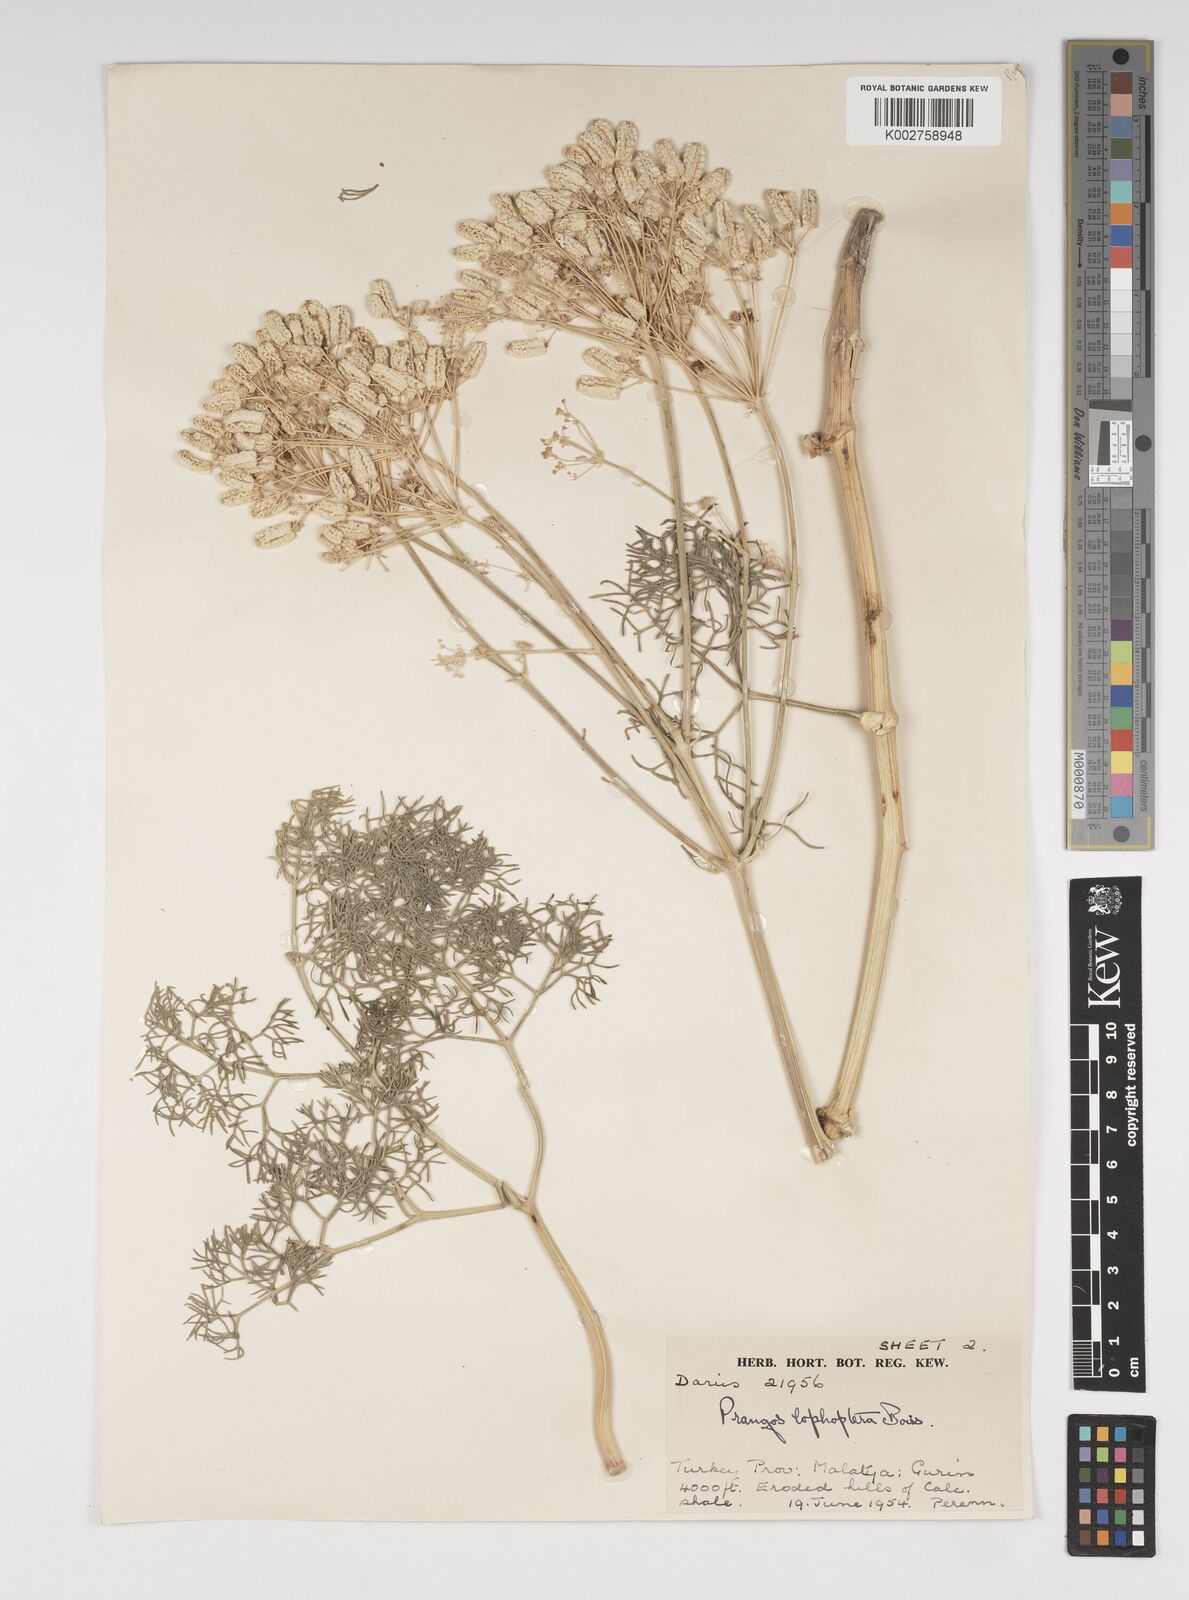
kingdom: Plantae
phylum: Tracheophyta
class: Magnoliopsida
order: Apiales
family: Apiaceae
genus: Prangos
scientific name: Prangos pabularia
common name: Yugan
